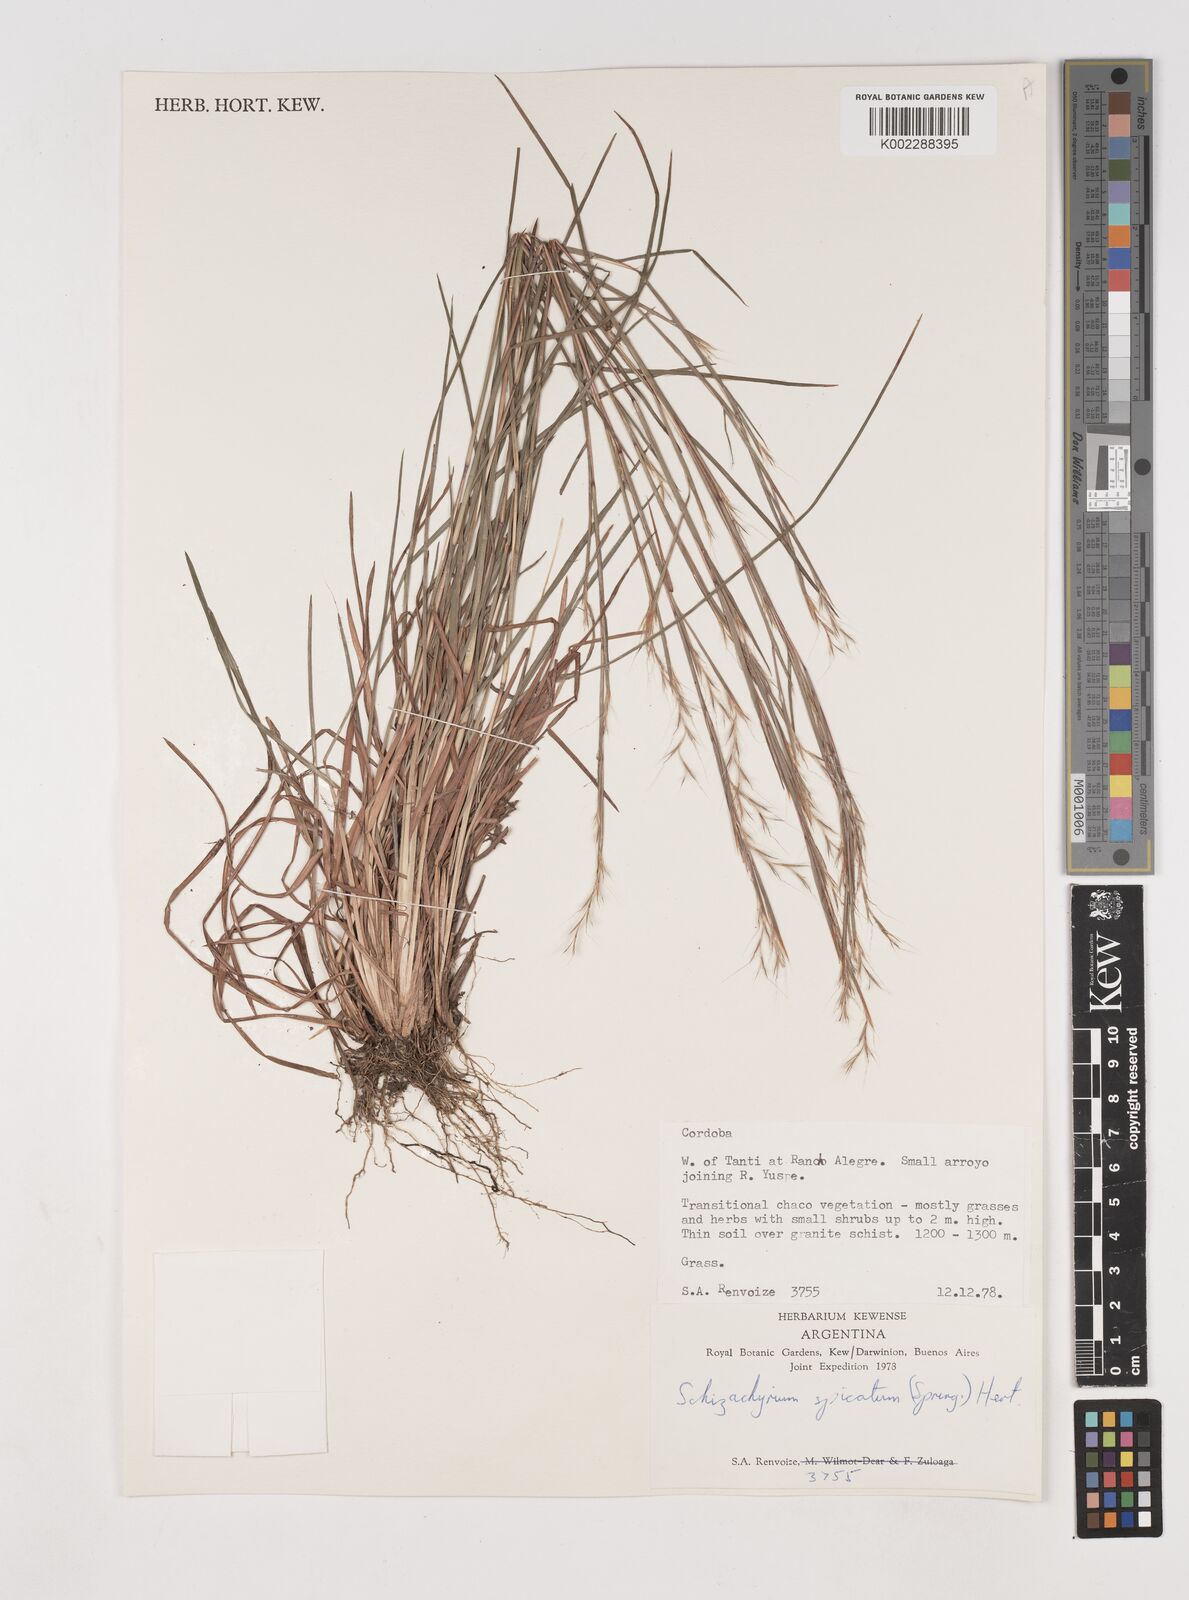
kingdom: Plantae
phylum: Tracheophyta
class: Liliopsida
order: Poales
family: Poaceae
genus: Schizachyrium
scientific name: Schizachyrium spicatum
